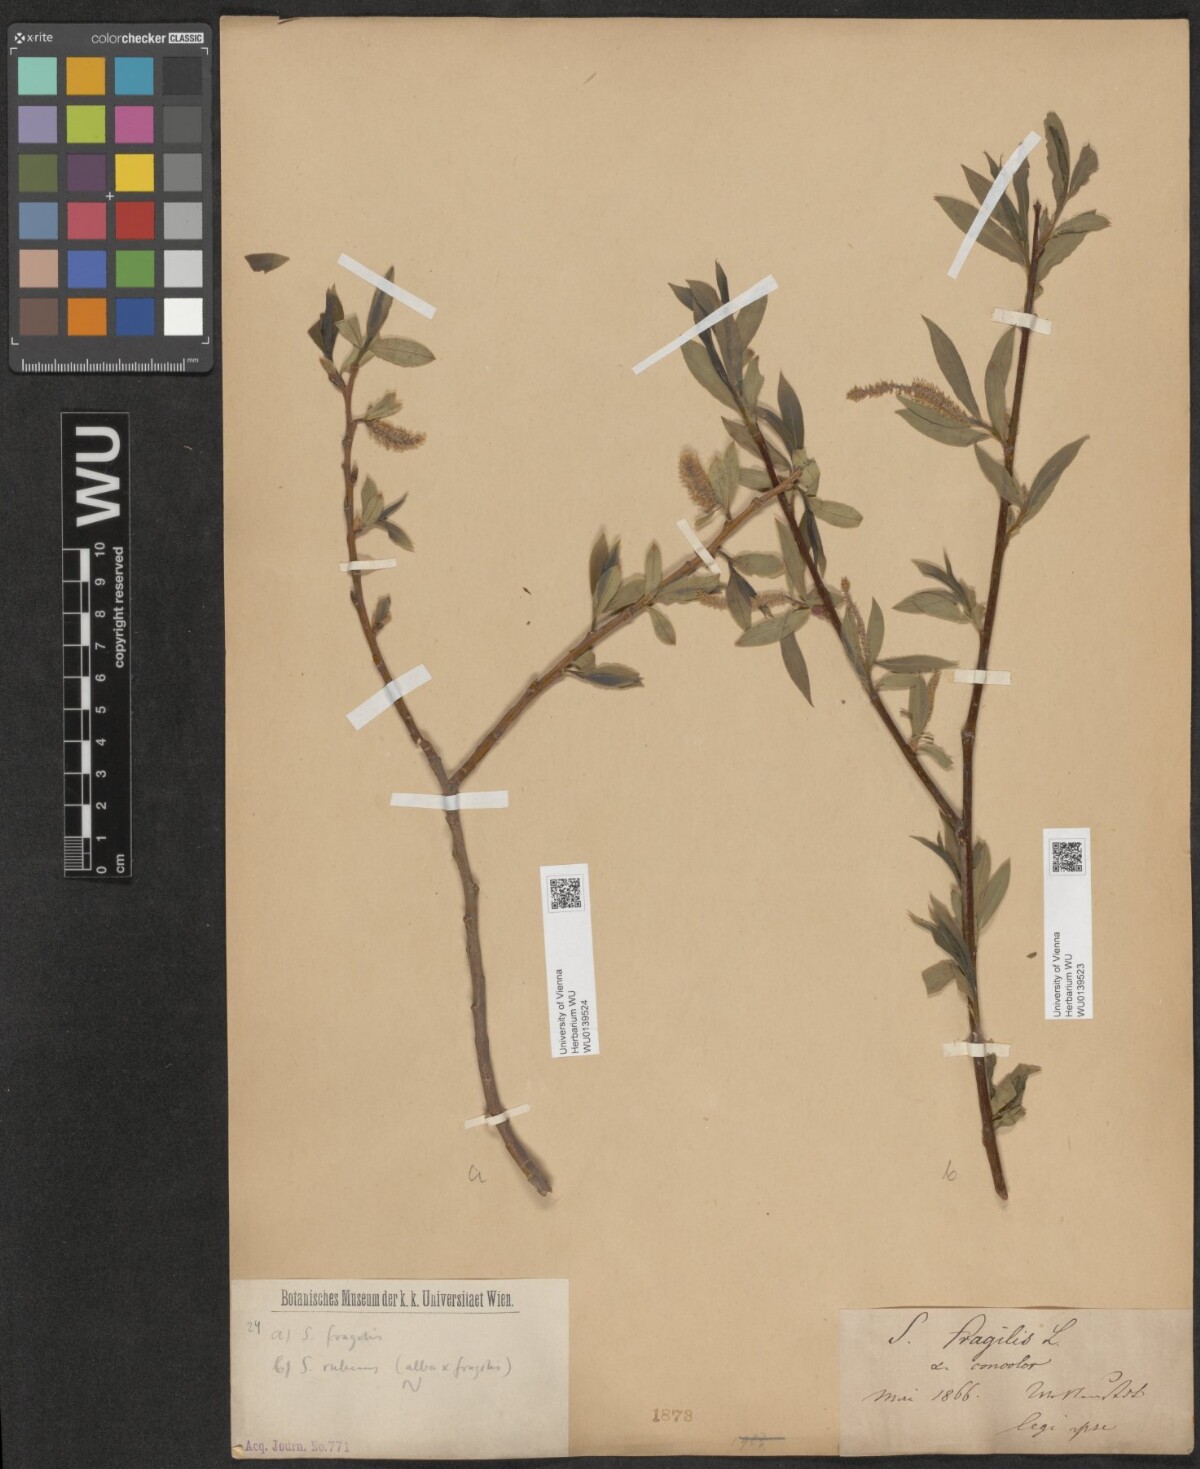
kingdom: Plantae
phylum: Tracheophyta
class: Magnoliopsida
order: Malpighiales
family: Salicaceae
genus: Salix
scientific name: Salix rubens
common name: Hybrid crack willow
